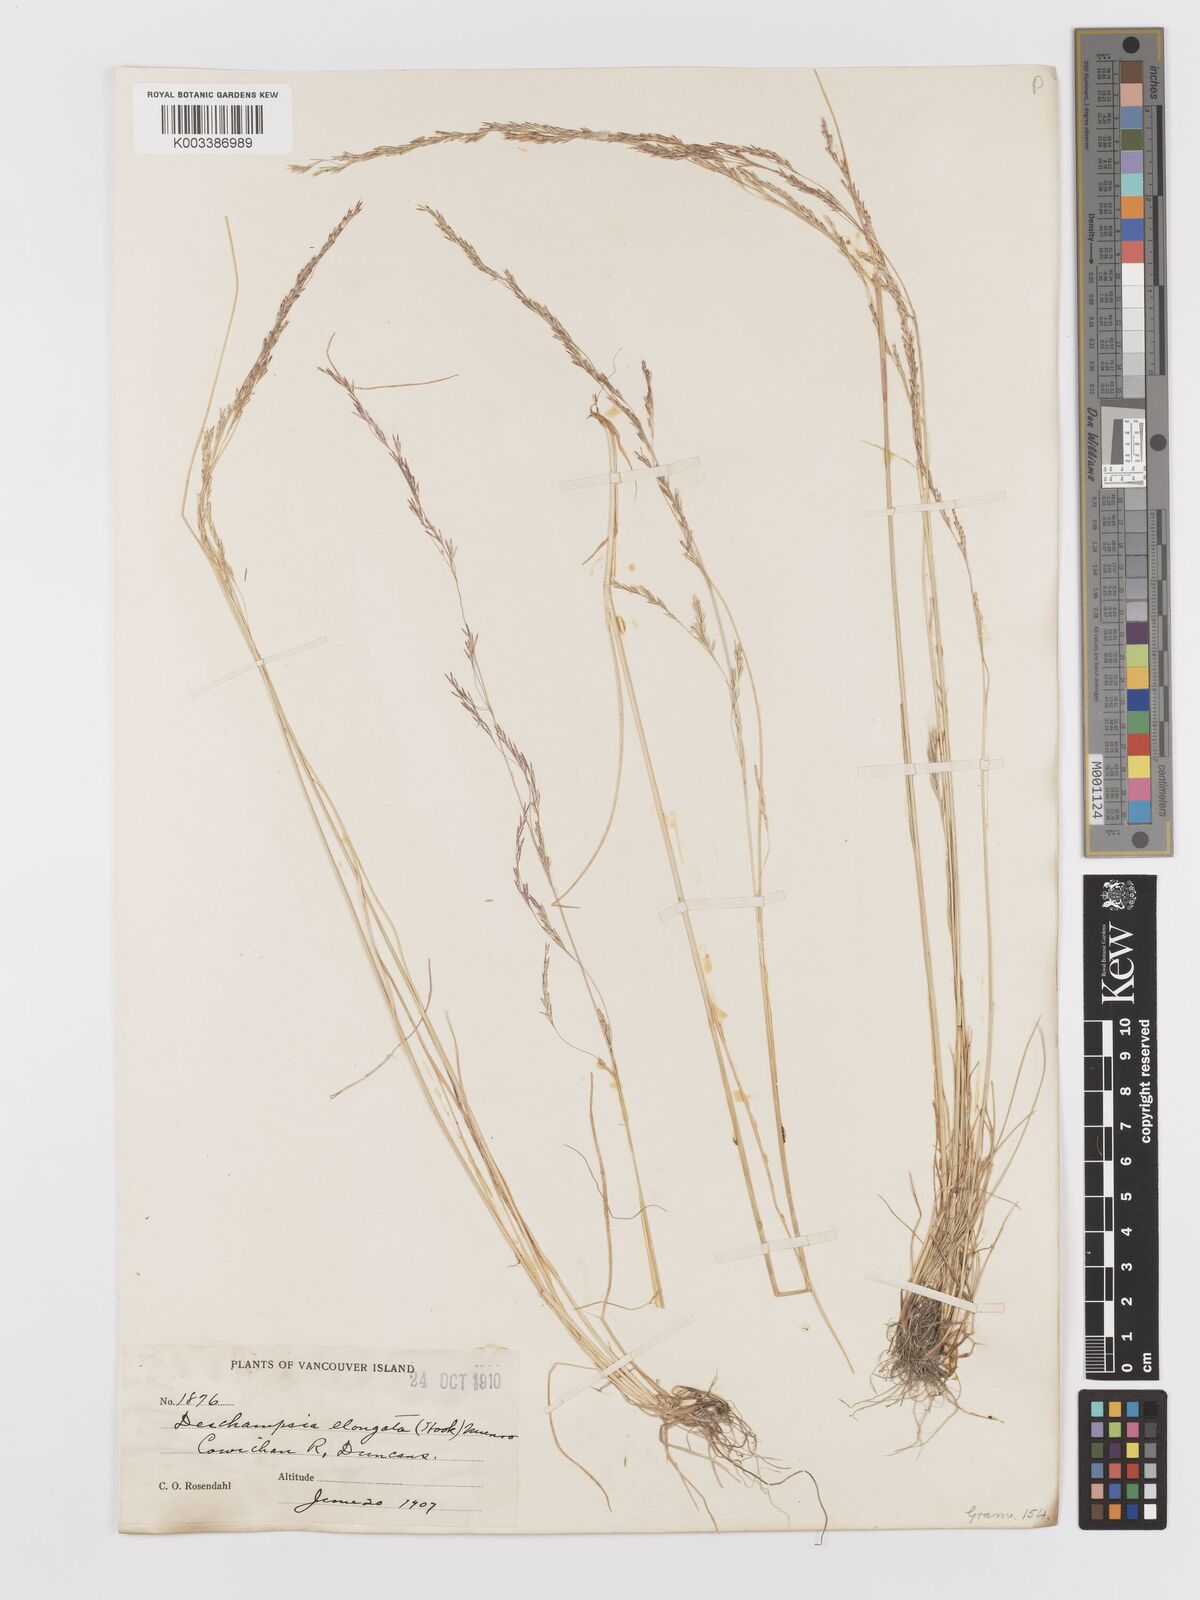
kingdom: Plantae
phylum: Tracheophyta
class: Liliopsida
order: Poales
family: Poaceae
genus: Deschampsia
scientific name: Deschampsia elongata
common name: Slender hairgrass
